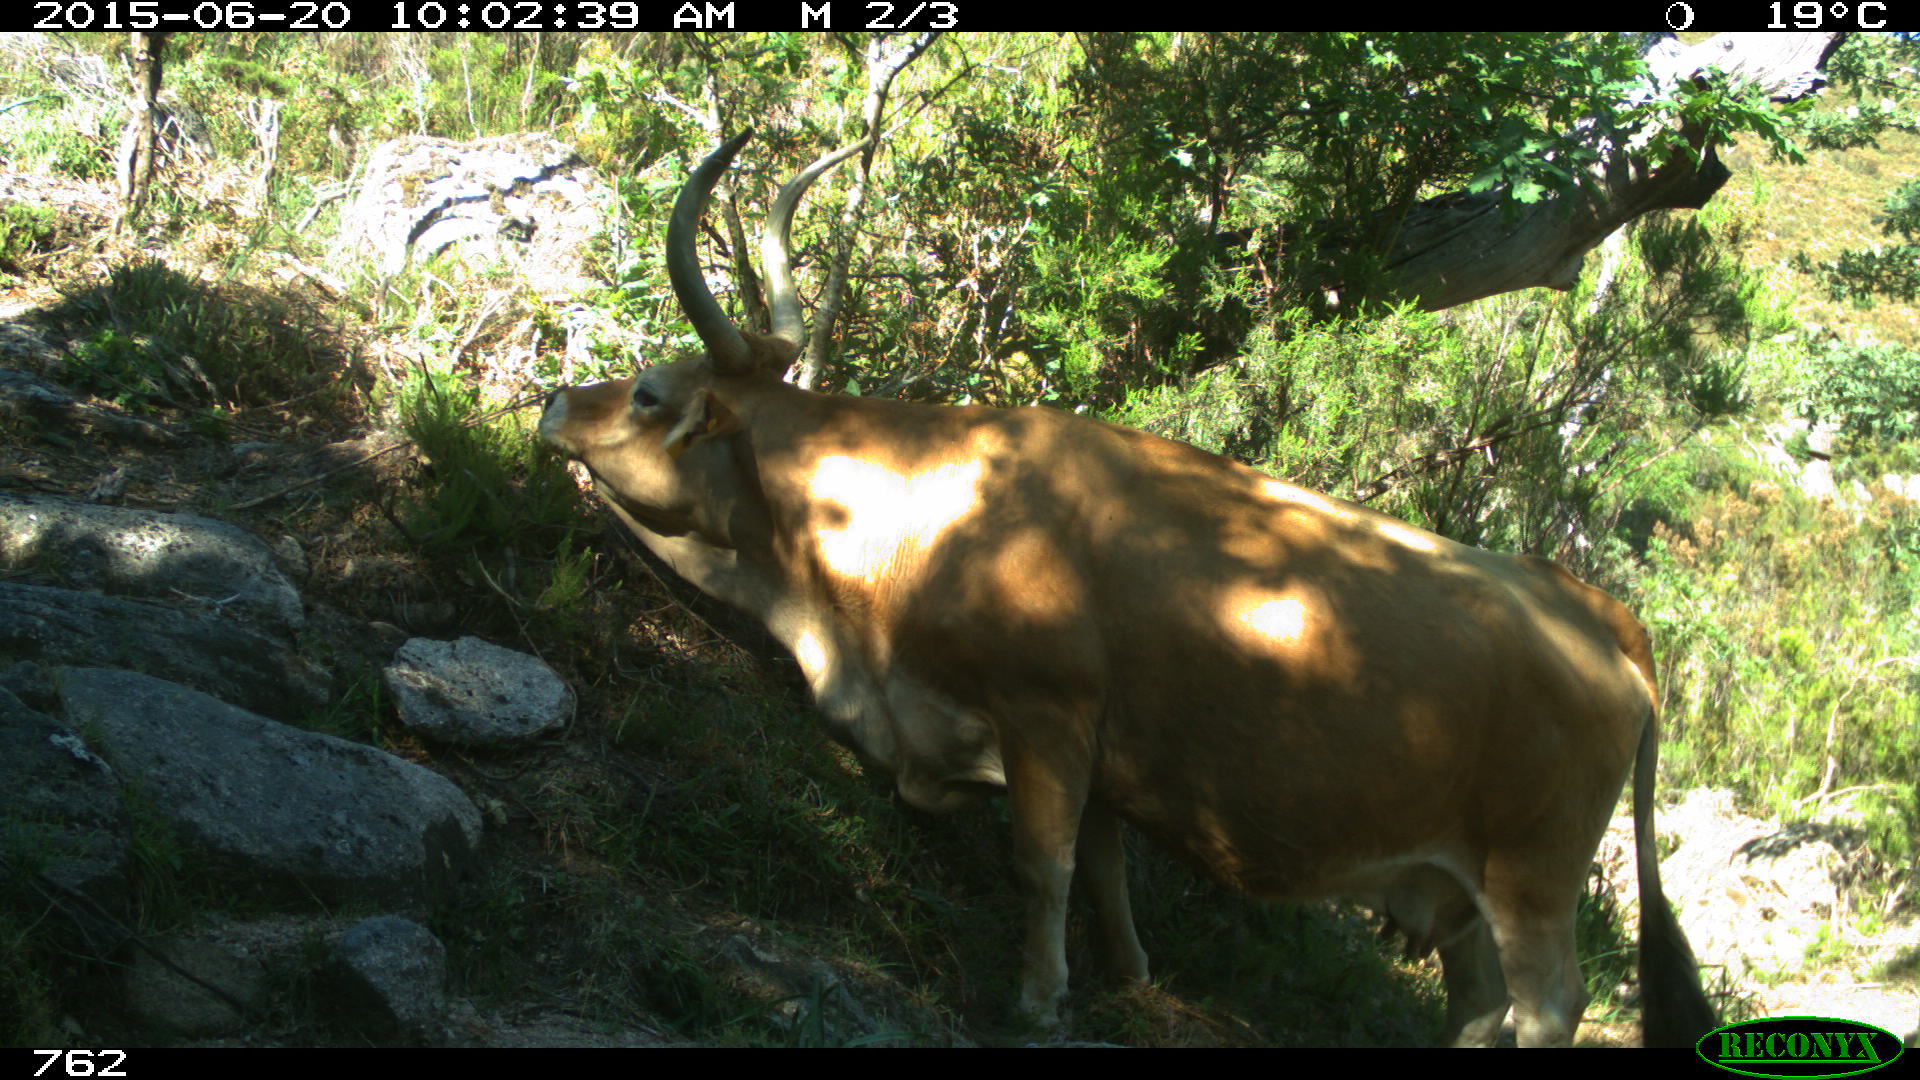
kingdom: Animalia
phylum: Chordata
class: Mammalia
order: Artiodactyla
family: Bovidae
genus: Bos
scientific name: Bos taurus
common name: Domesticated cattle
